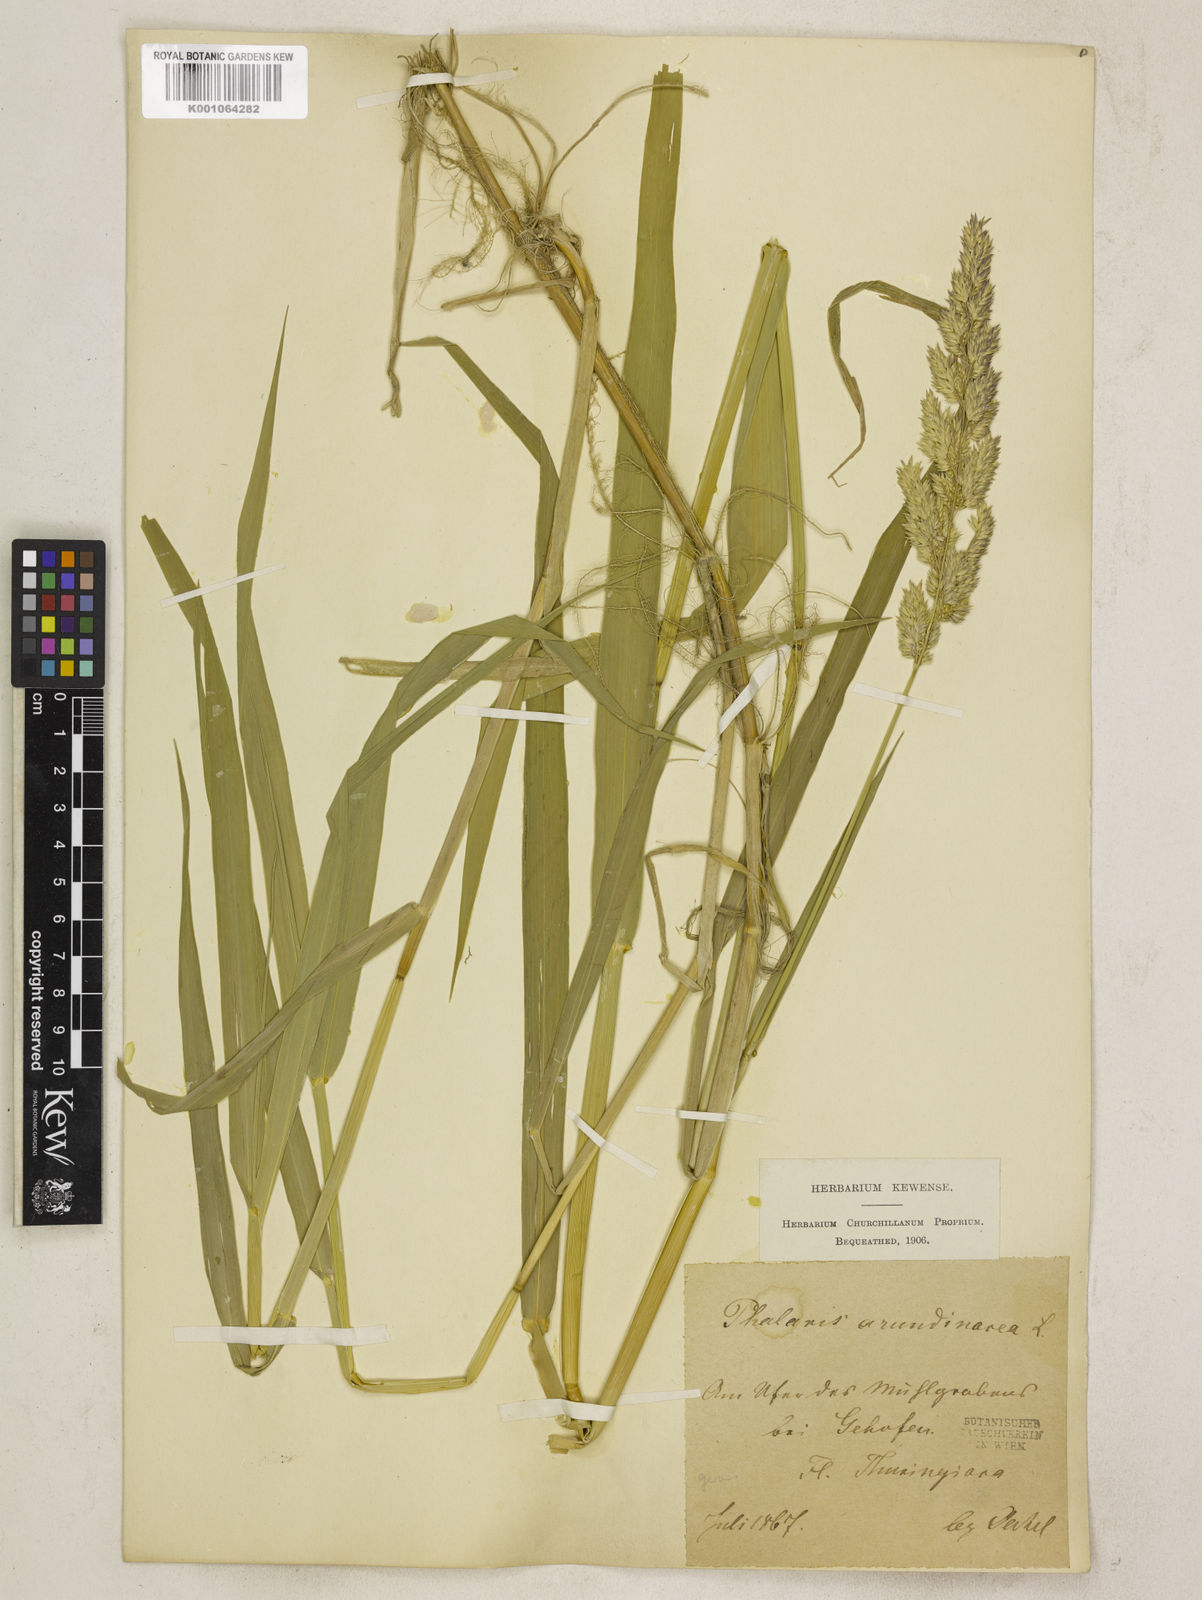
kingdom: Plantae
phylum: Tracheophyta
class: Liliopsida
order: Poales
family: Poaceae
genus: Phalaris
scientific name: Phalaris arundinacea
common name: Reed canary-grass
